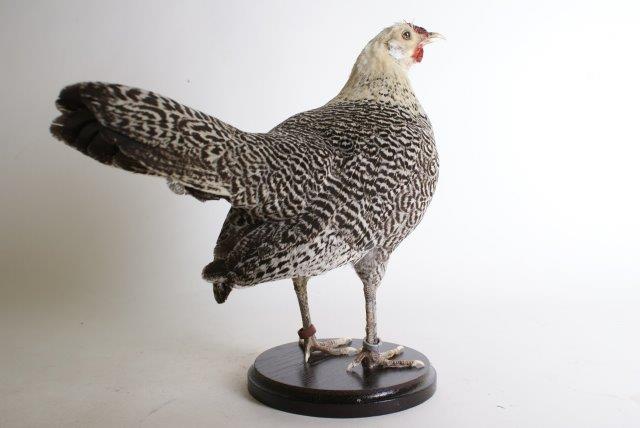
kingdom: Animalia
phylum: Chordata
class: Aves
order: Galliformes
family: Phasianidae
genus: Gallus
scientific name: Gallus gallus
